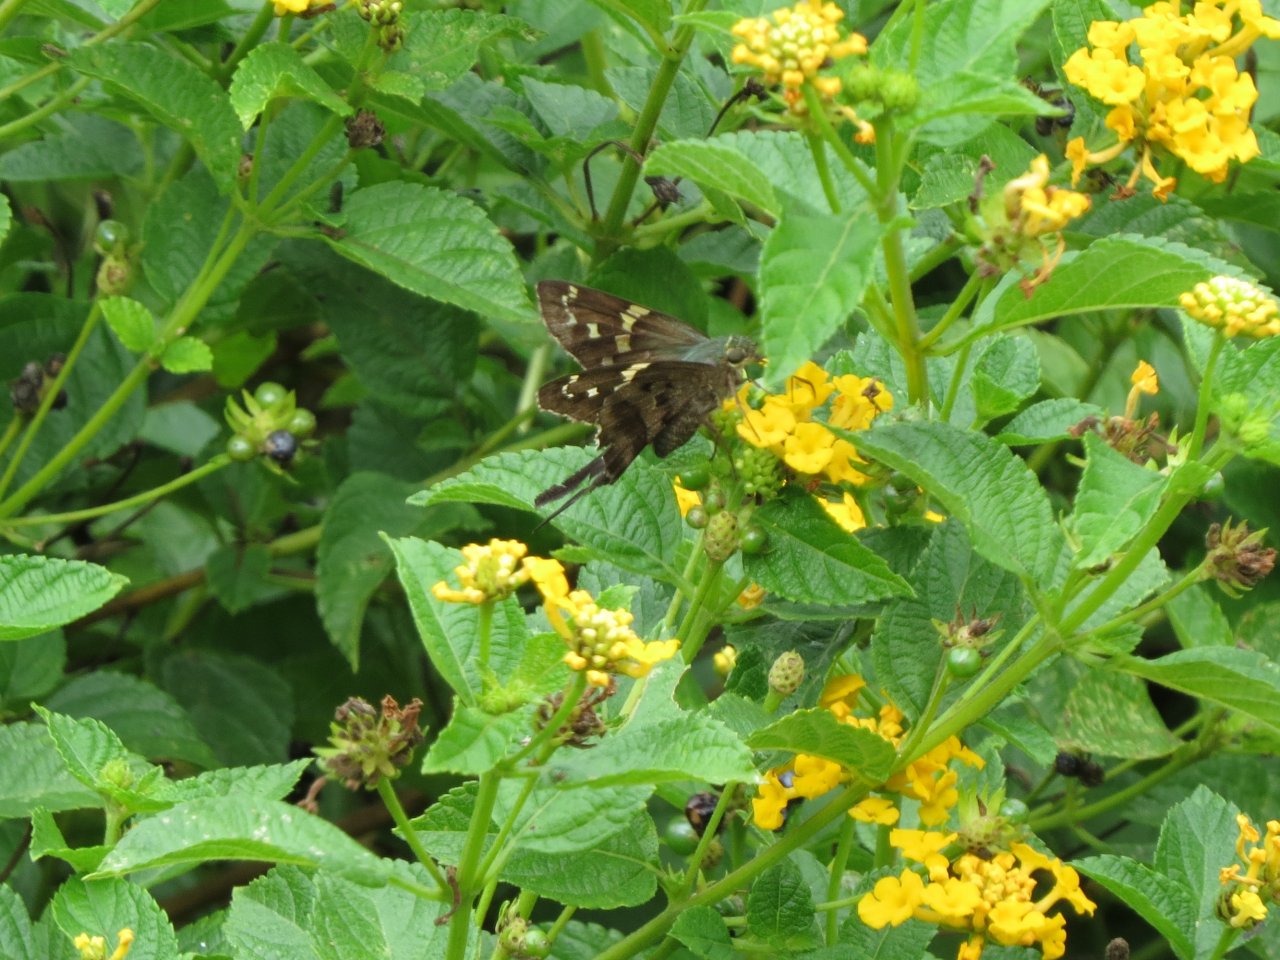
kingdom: Animalia
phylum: Arthropoda
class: Insecta
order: Lepidoptera
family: Hesperiidae
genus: Urbanus
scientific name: Urbanus proteus
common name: Long-tailed Skipper
